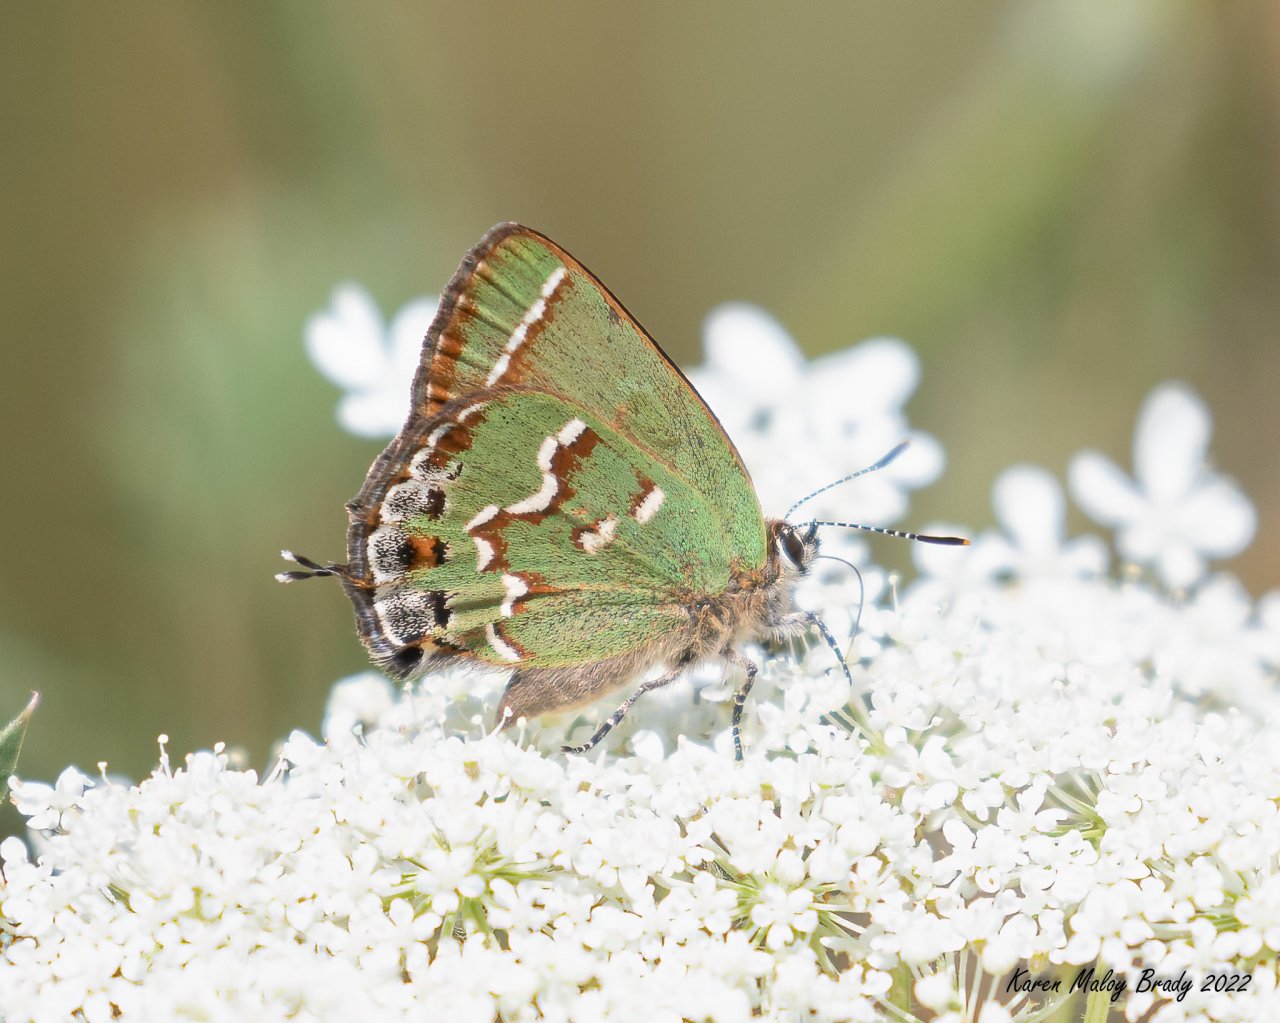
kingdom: Animalia
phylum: Arthropoda
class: Insecta
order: Lepidoptera
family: Lycaenidae
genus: Mitoura
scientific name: Mitoura gryneus
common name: Juniper Hairstreak
